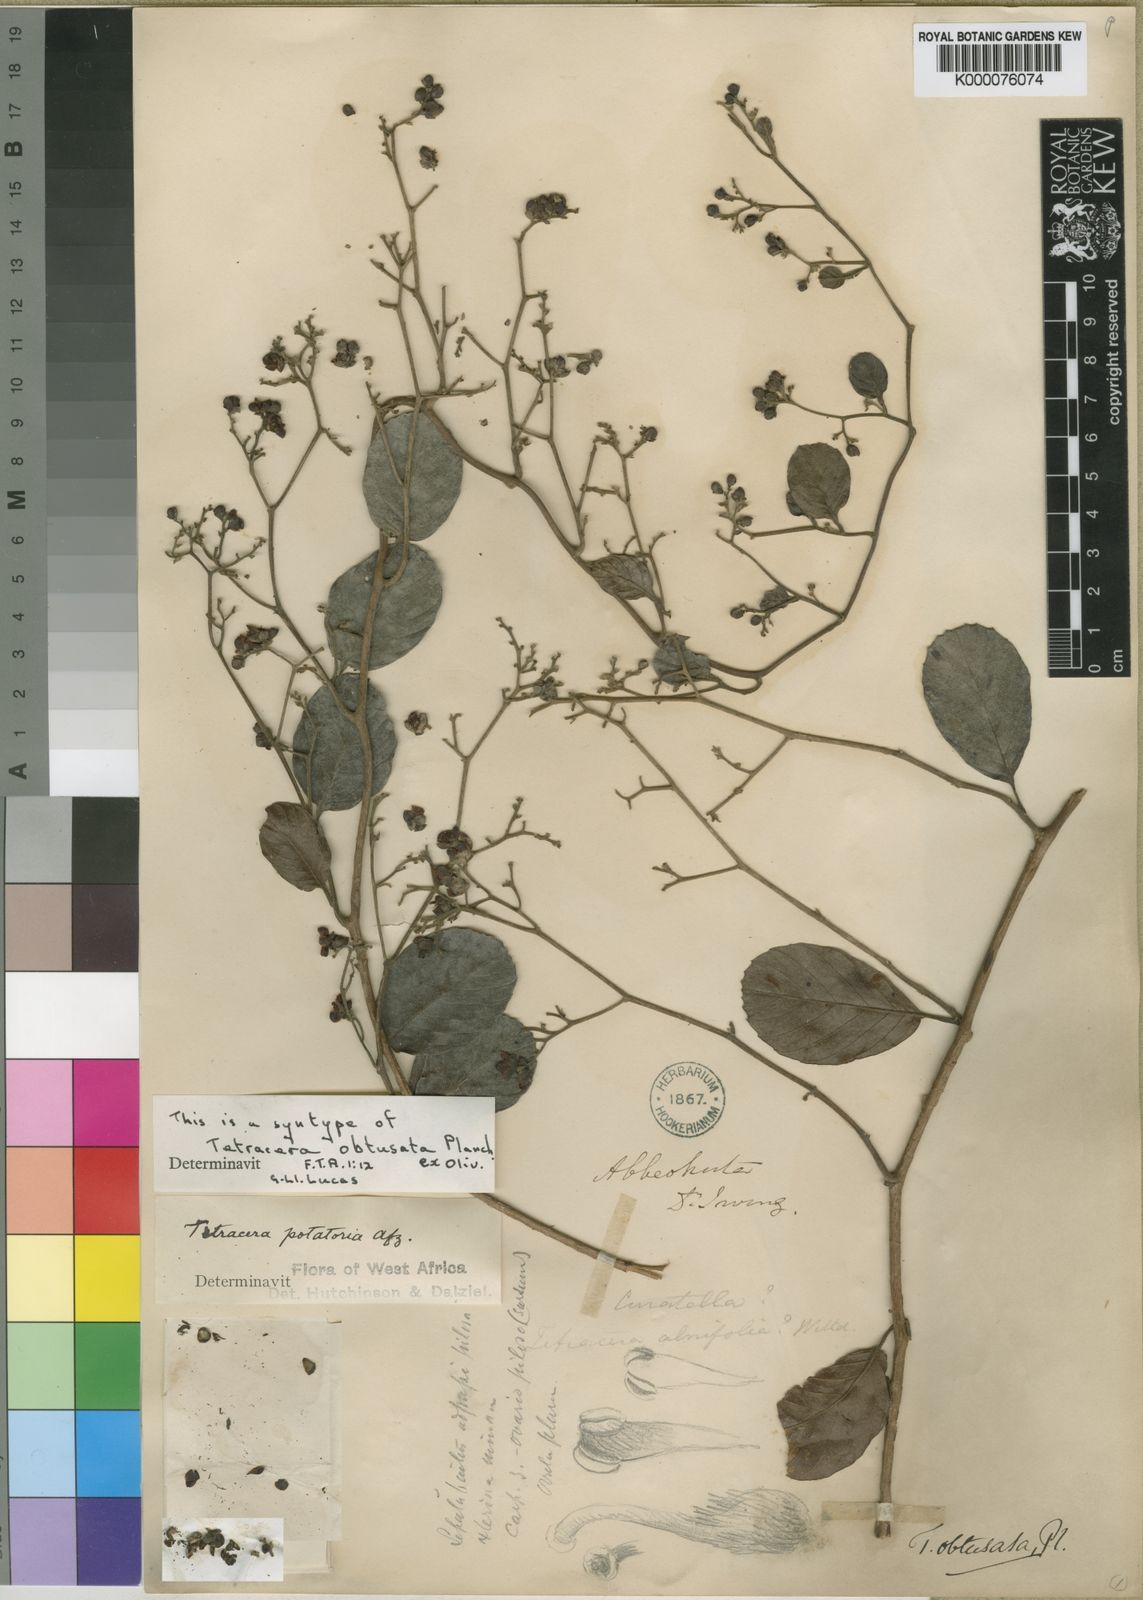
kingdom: Plantae
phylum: Tracheophyta
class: Magnoliopsida
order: Dilleniales
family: Dilleniaceae
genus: Tetracera
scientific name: Tetracera potatoria
